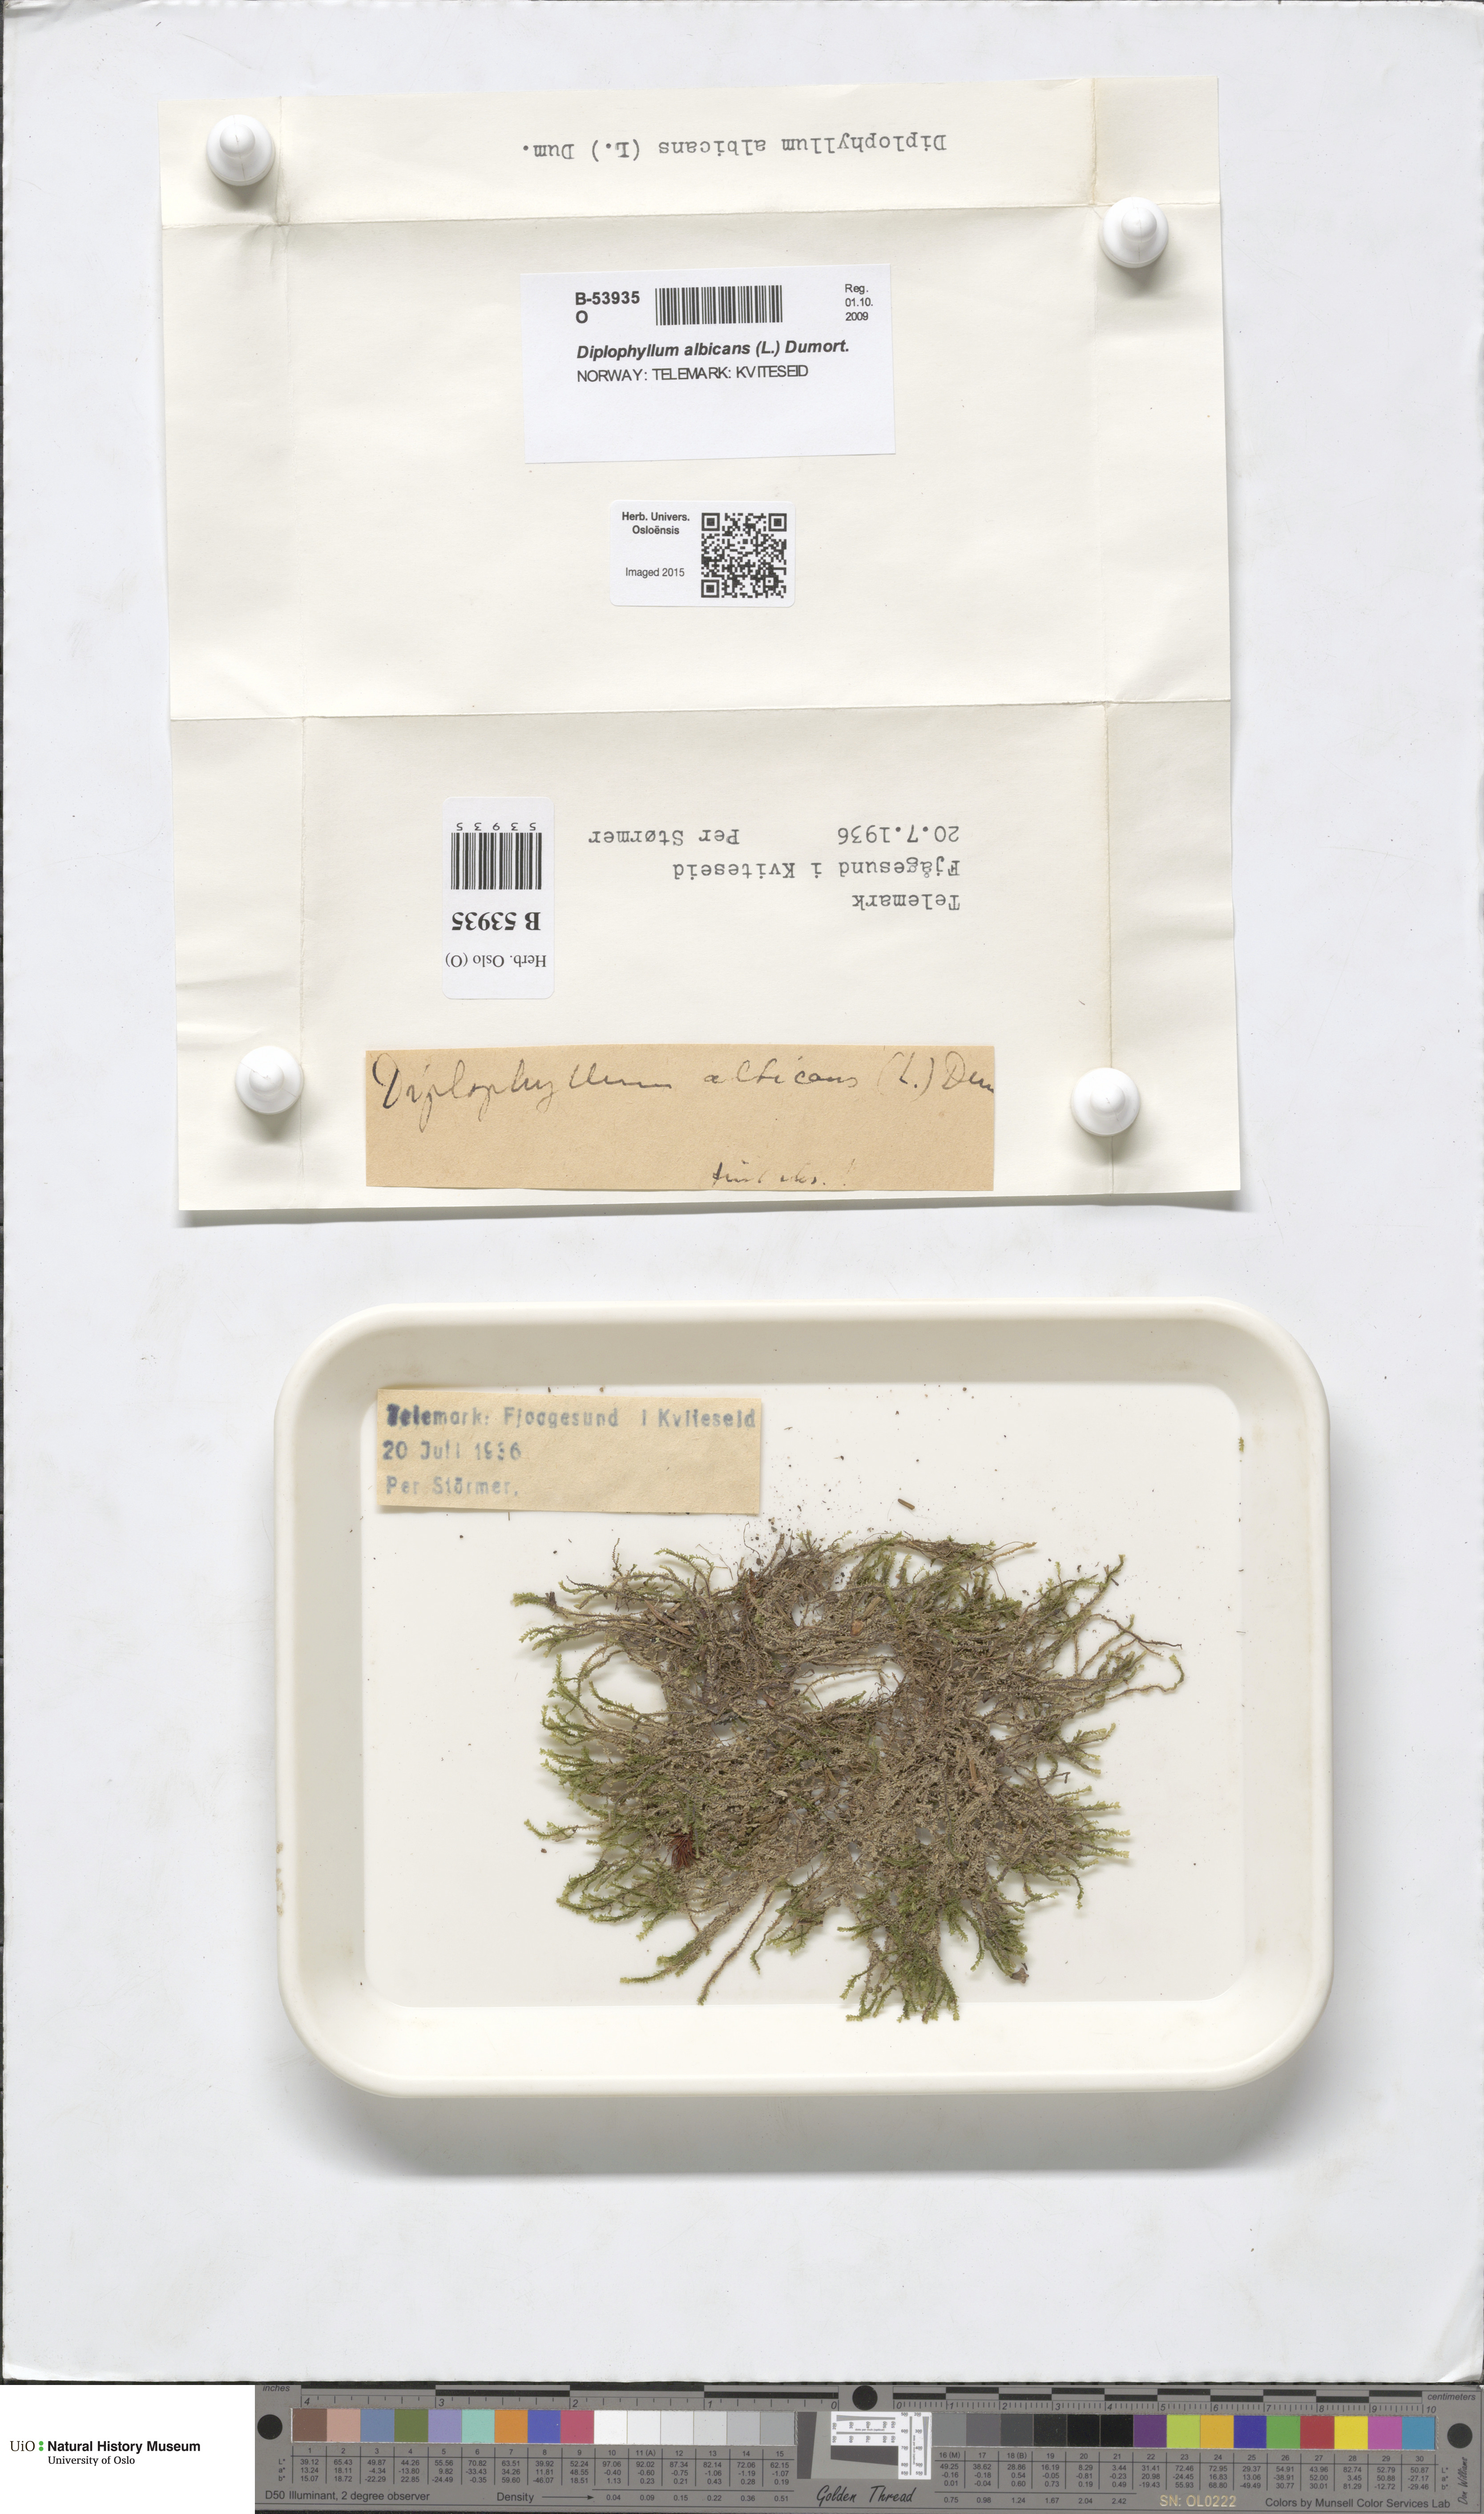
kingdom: Plantae
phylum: Marchantiophyta
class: Jungermanniopsida
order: Jungermanniales
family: Scapaniaceae
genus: Diplophyllum
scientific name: Diplophyllum albicans
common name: White earwort
